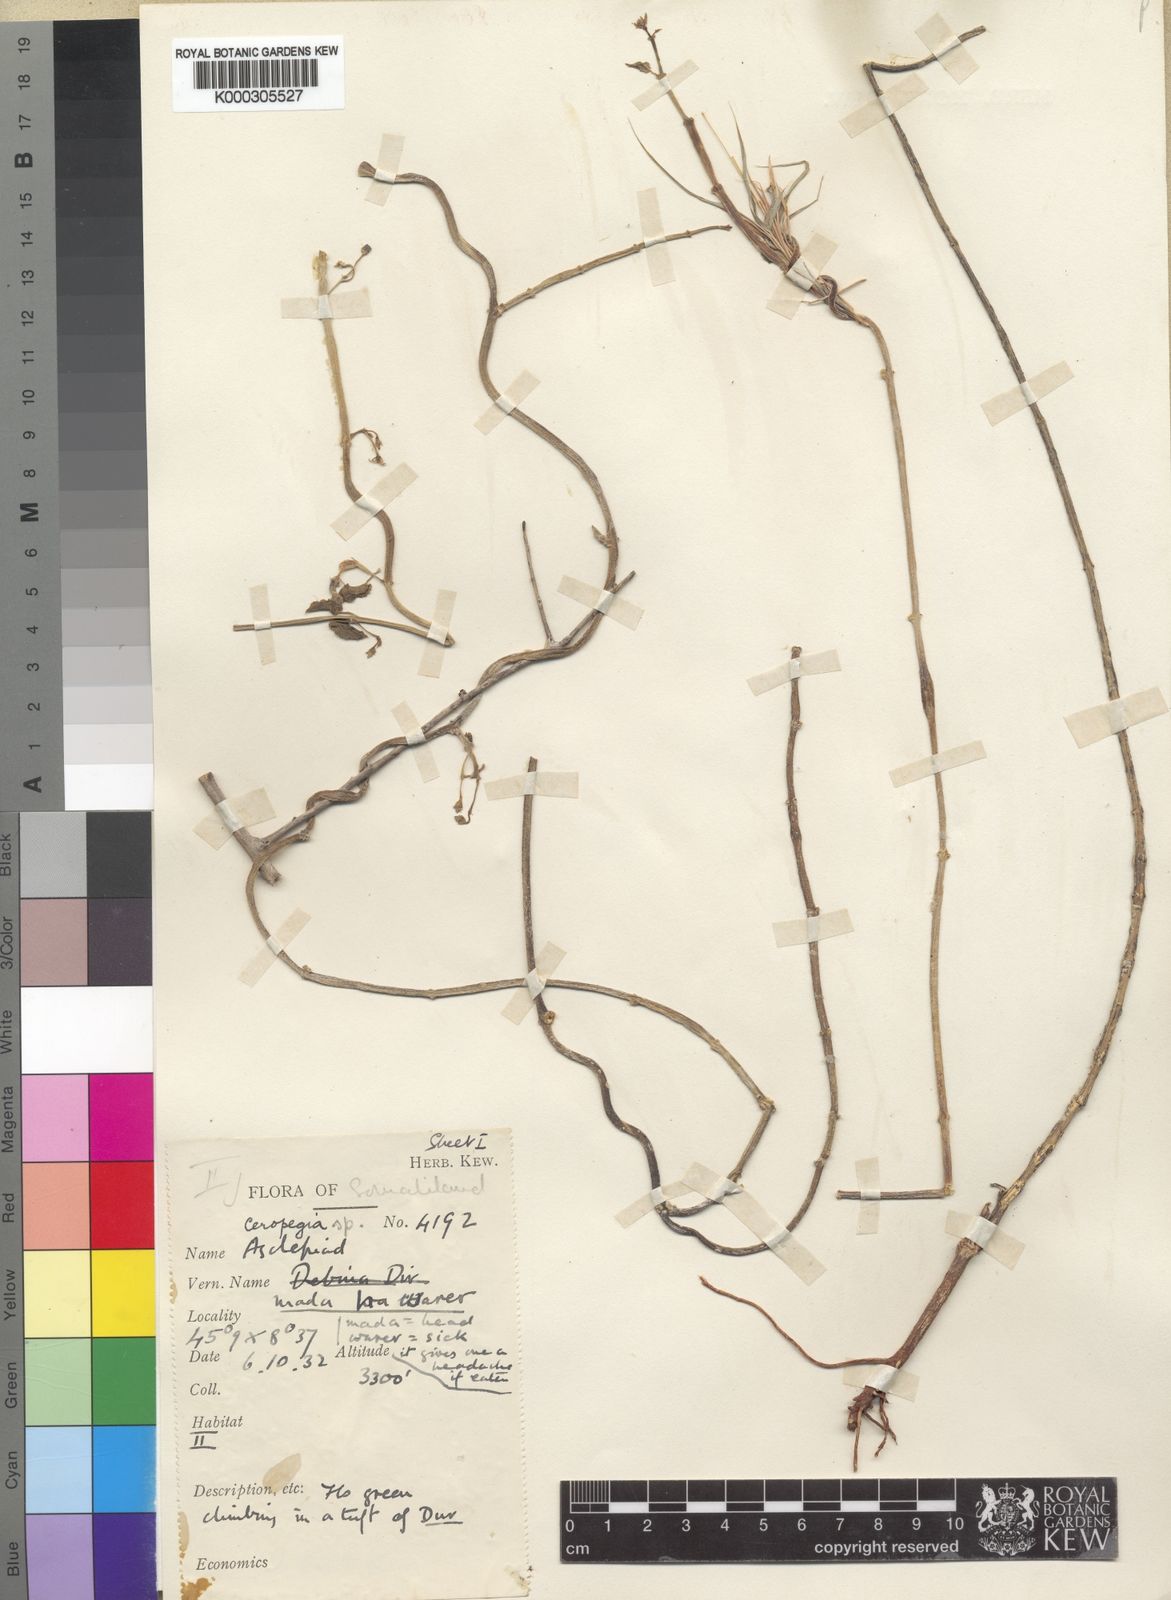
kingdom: Plantae
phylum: Tracheophyta
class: Magnoliopsida
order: Gentianales
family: Apocynaceae
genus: Ceropegia
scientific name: Ceropegia somalensis
